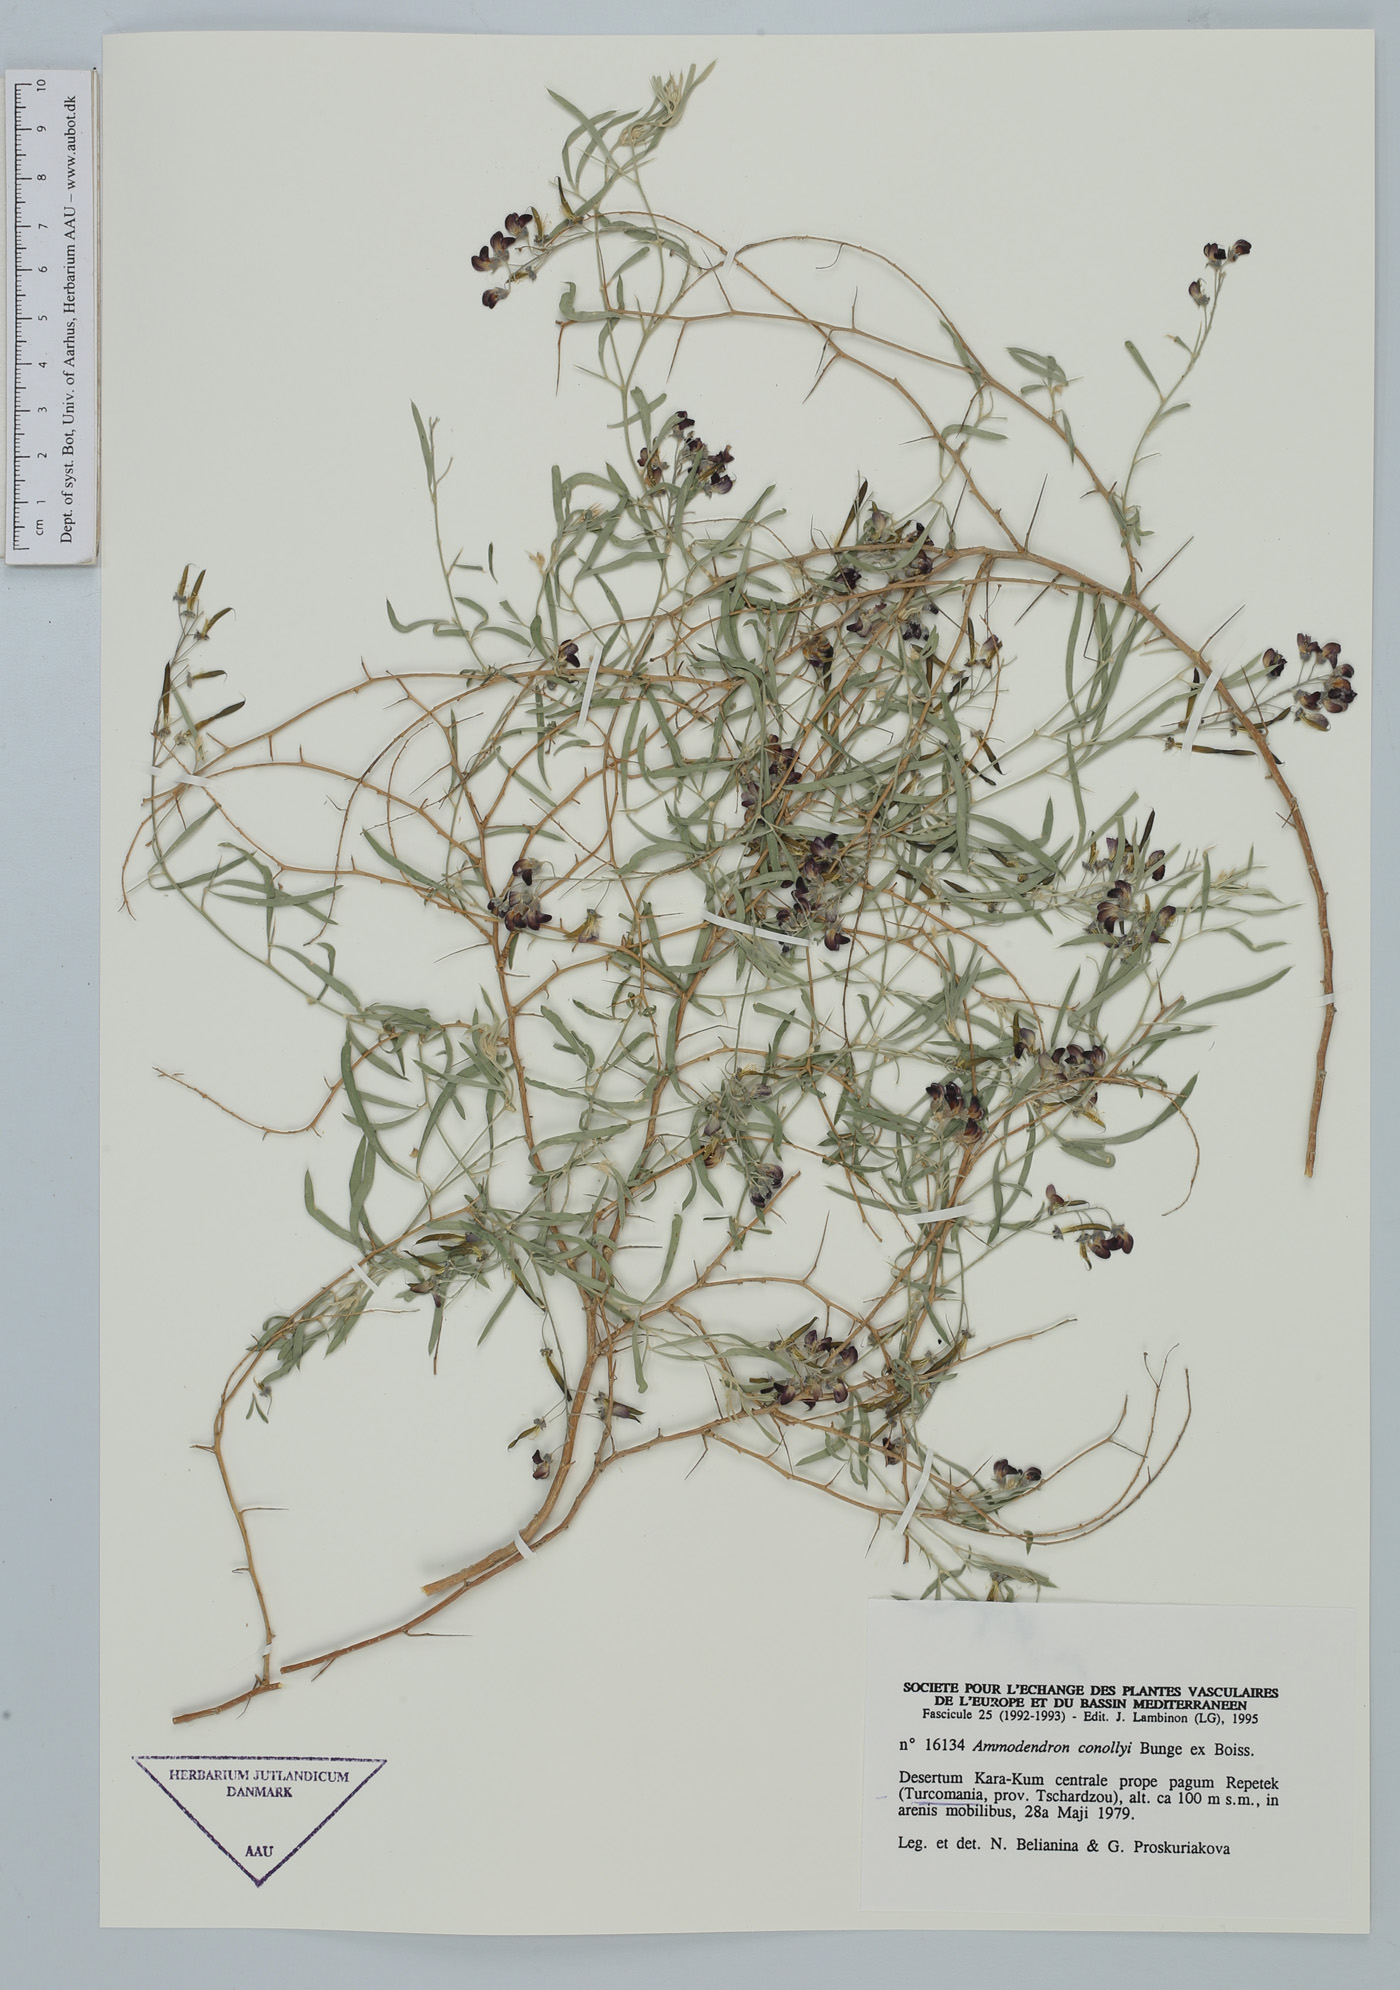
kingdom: Plantae
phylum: Tracheophyta
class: Magnoliopsida
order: Fabales
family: Fabaceae
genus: Ammodendron
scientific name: Ammodendron conollyi
